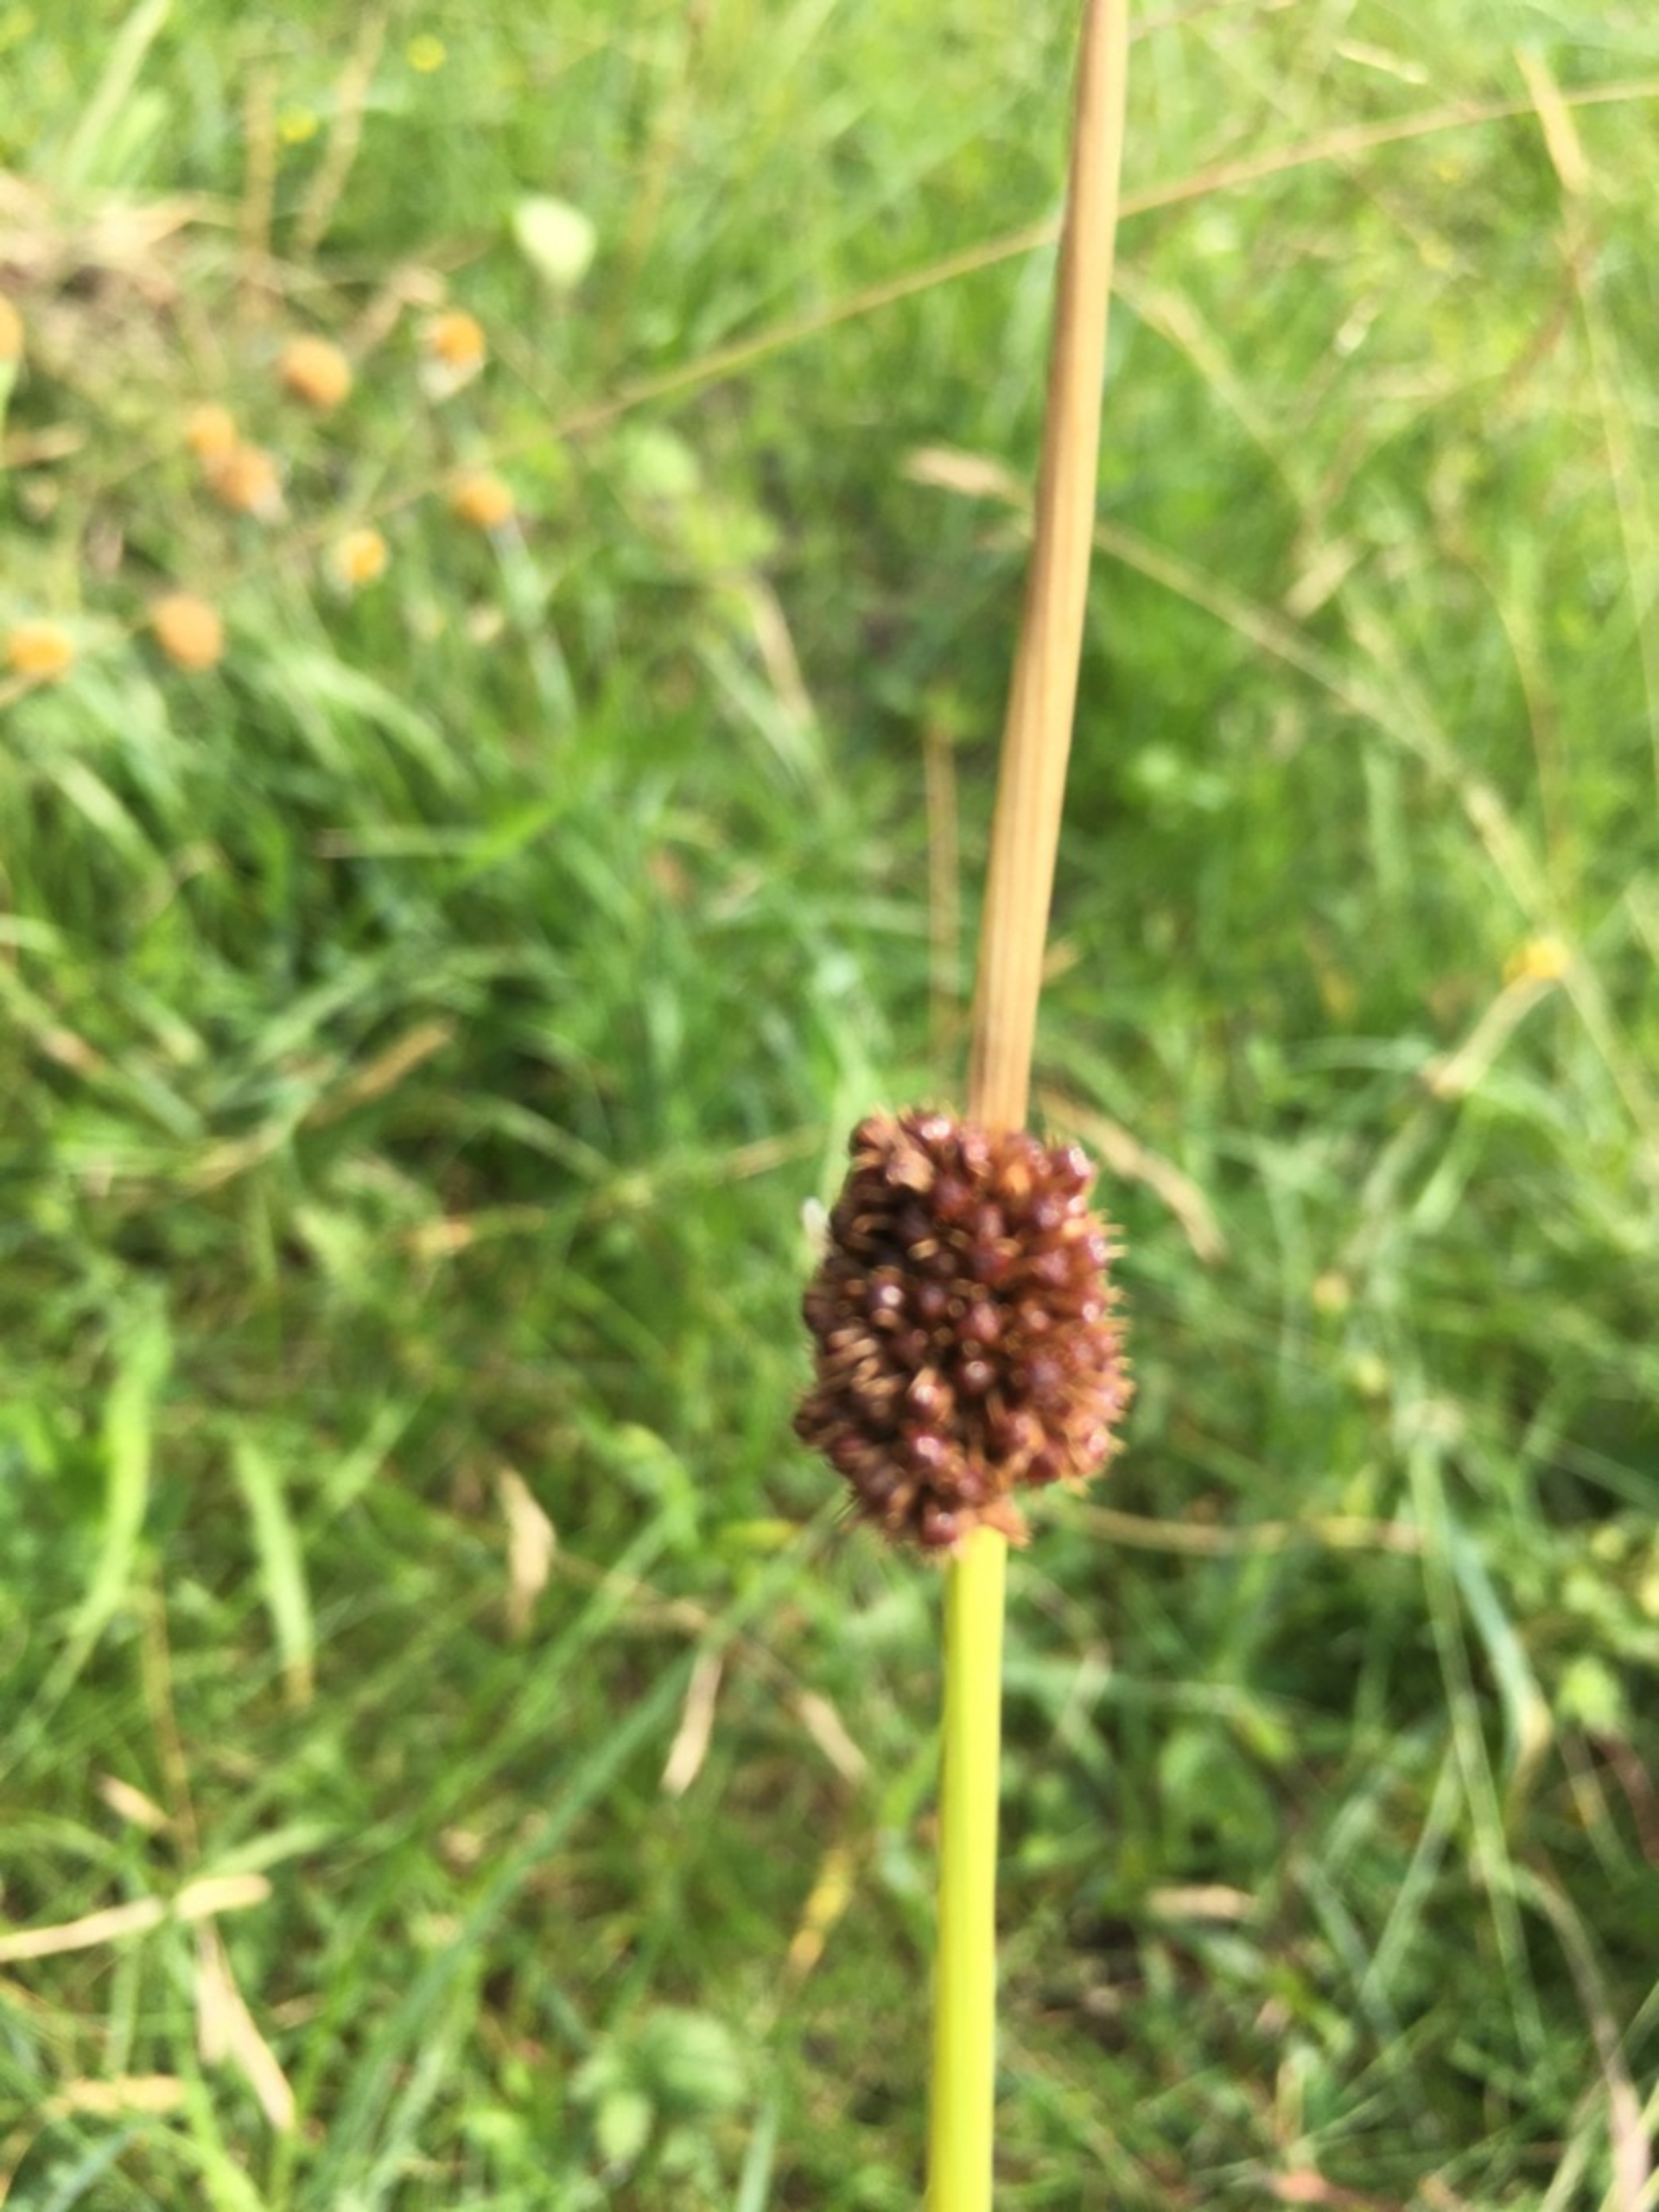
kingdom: Plantae
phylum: Tracheophyta
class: Liliopsida
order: Poales
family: Juncaceae
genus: Juncus
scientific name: Juncus conglomeratus
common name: Knop-siv
